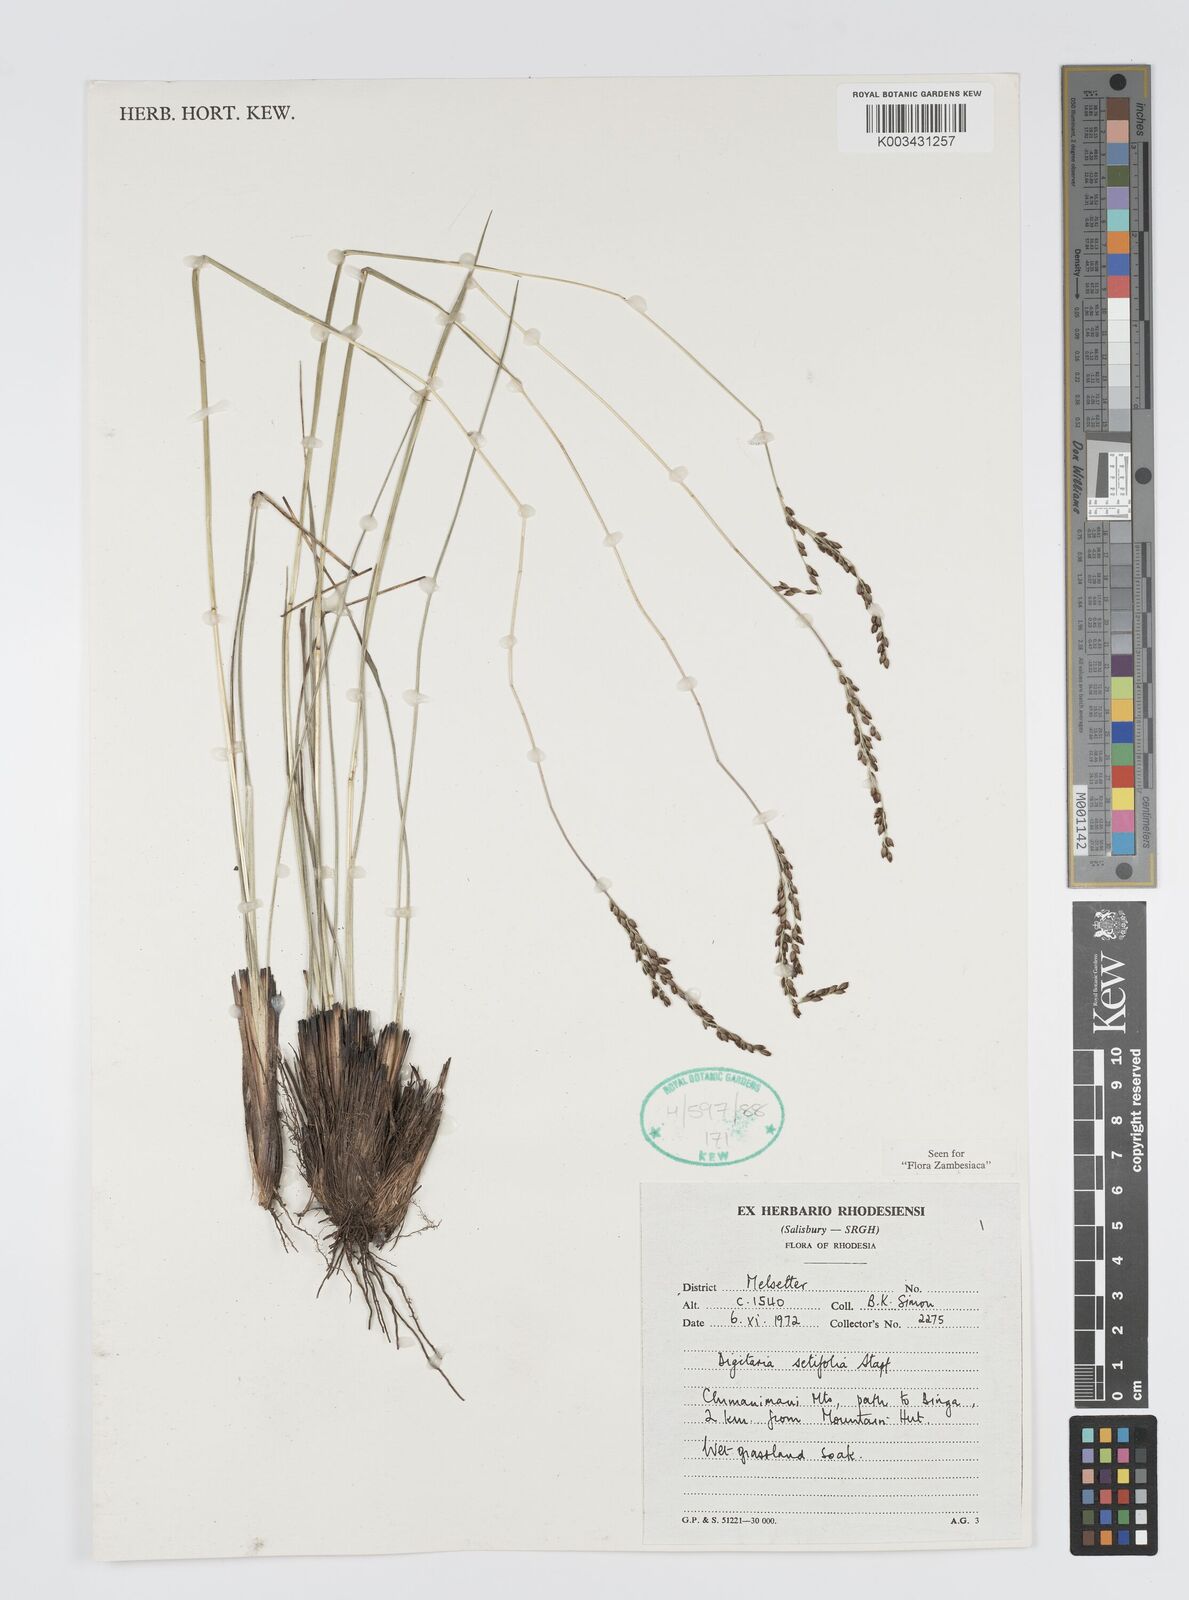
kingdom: Plantae
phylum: Tracheophyta
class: Liliopsida
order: Poales
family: Poaceae
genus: Digitaria
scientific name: Digitaria setifolia
